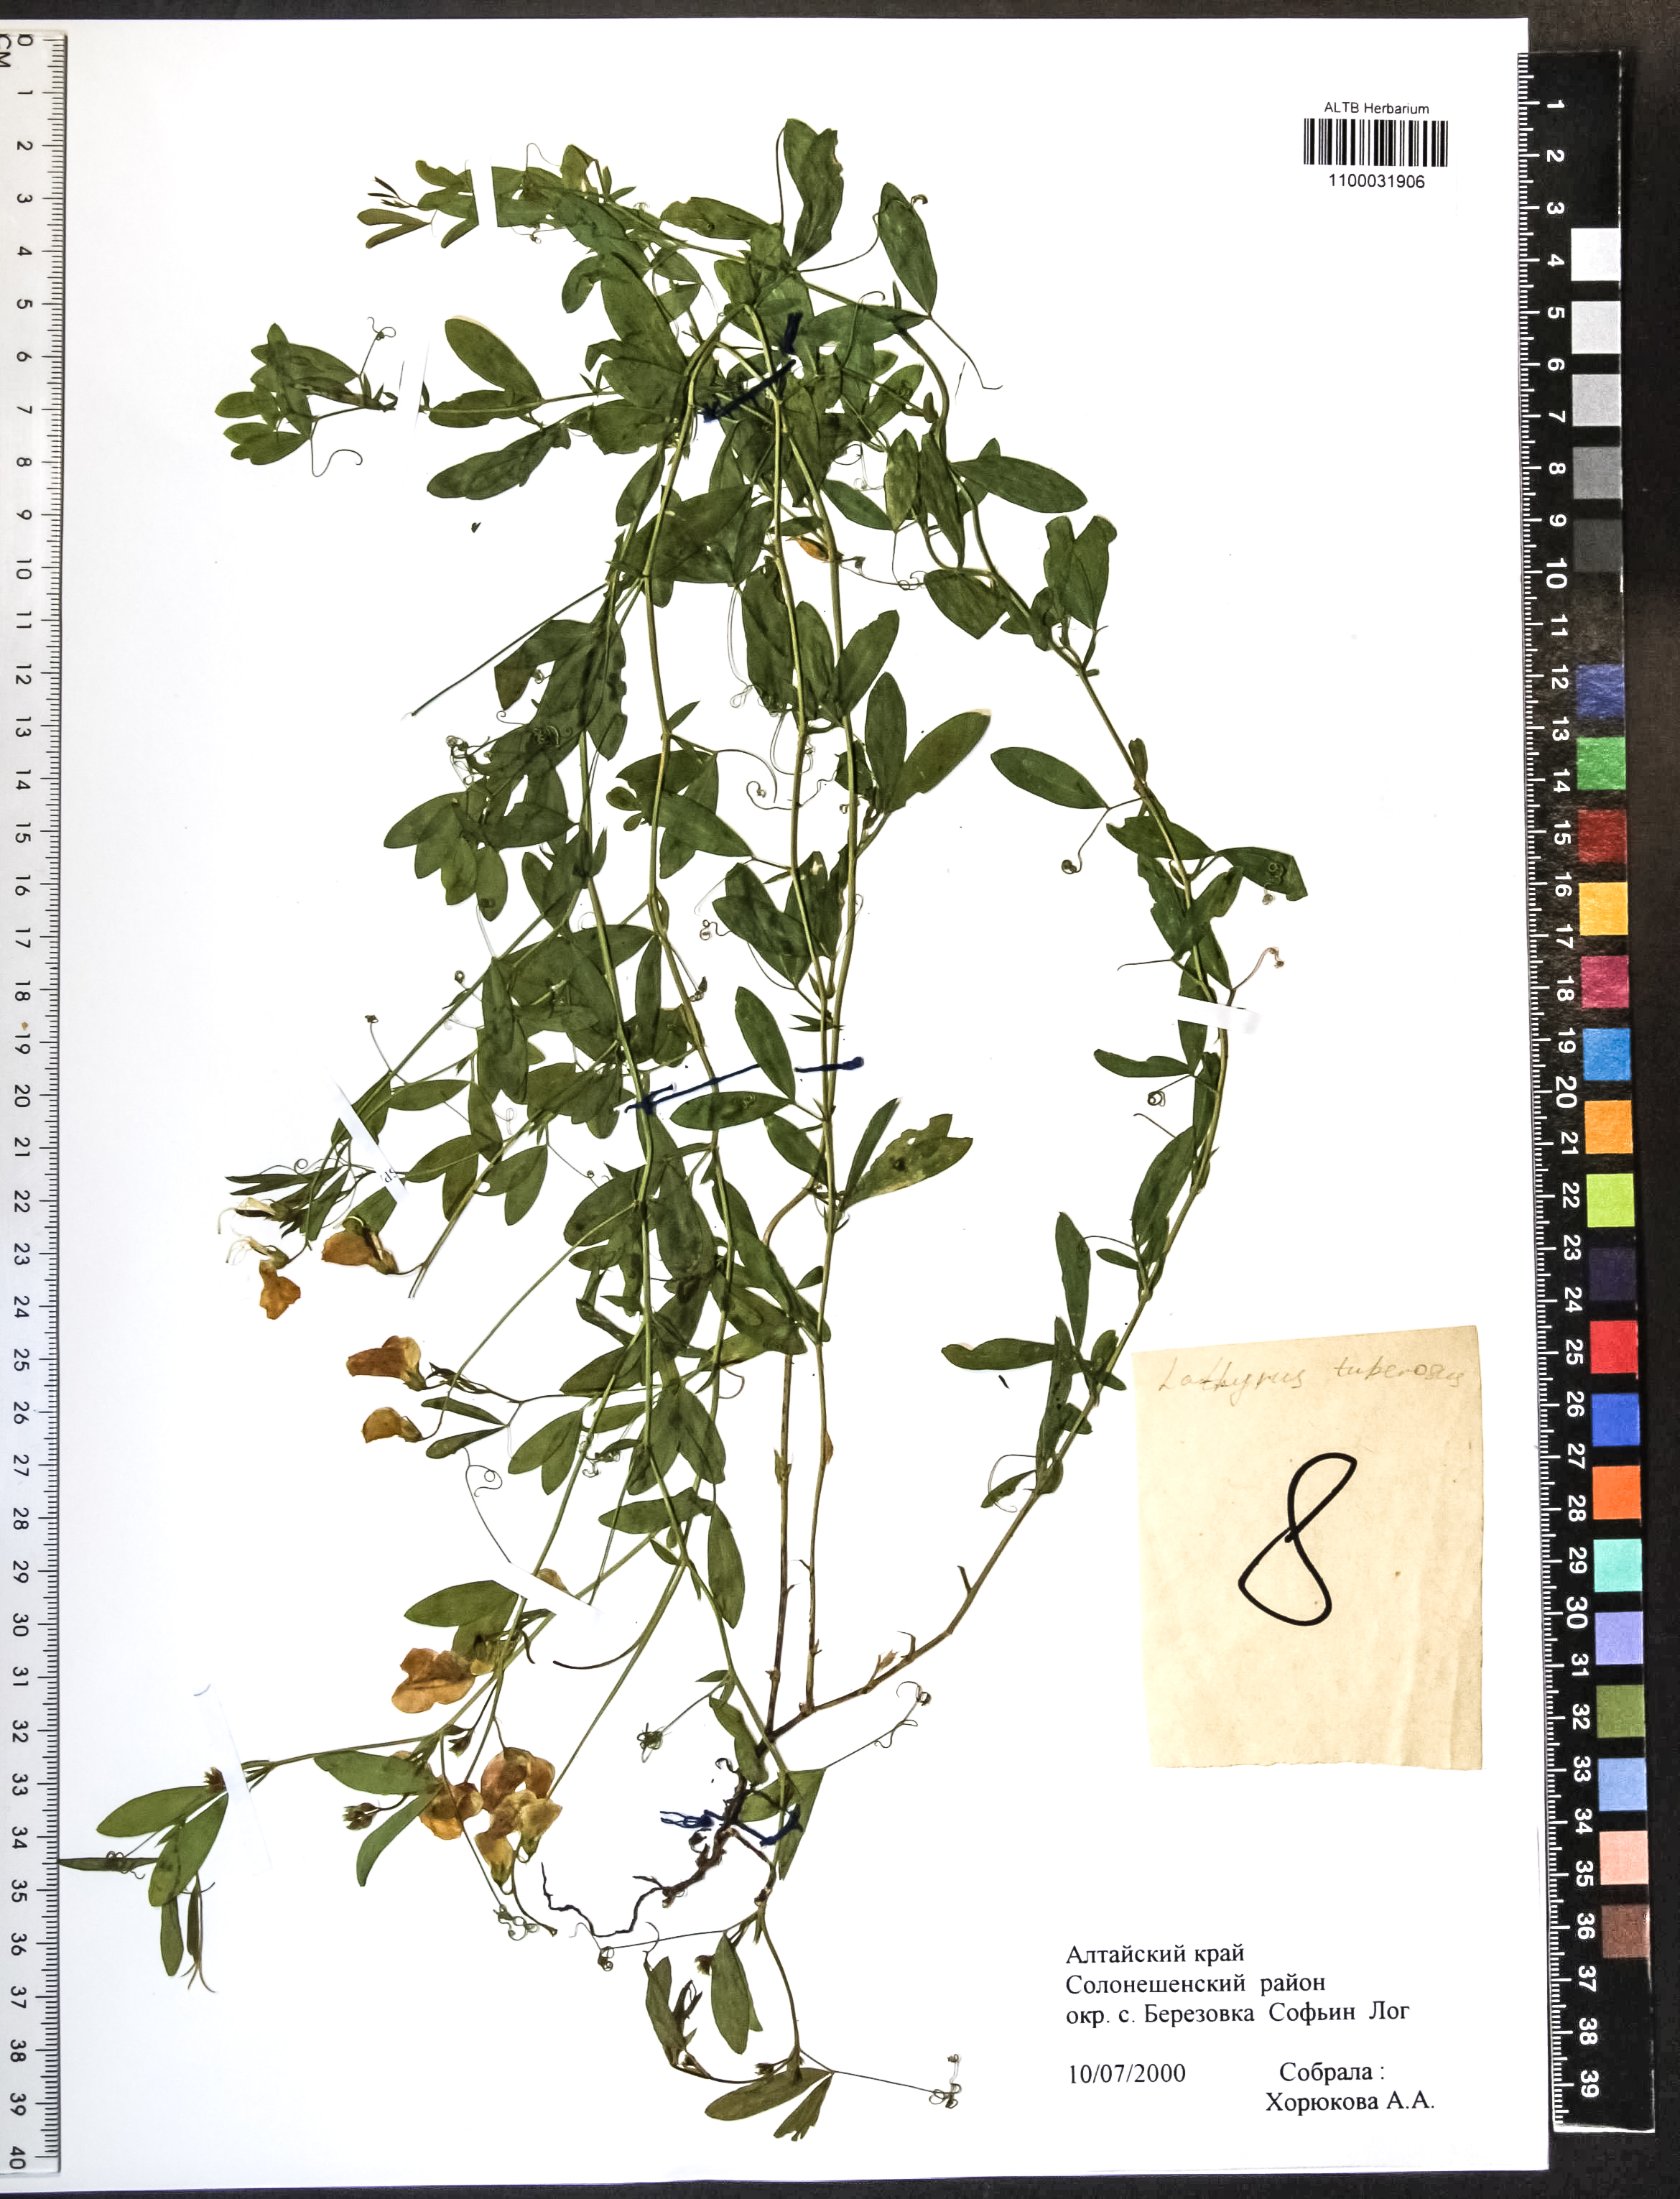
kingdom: Plantae
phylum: Tracheophyta
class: Magnoliopsida
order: Fabales
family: Fabaceae
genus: Lathyrus
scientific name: Lathyrus tuberosus
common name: Tuberous pea
